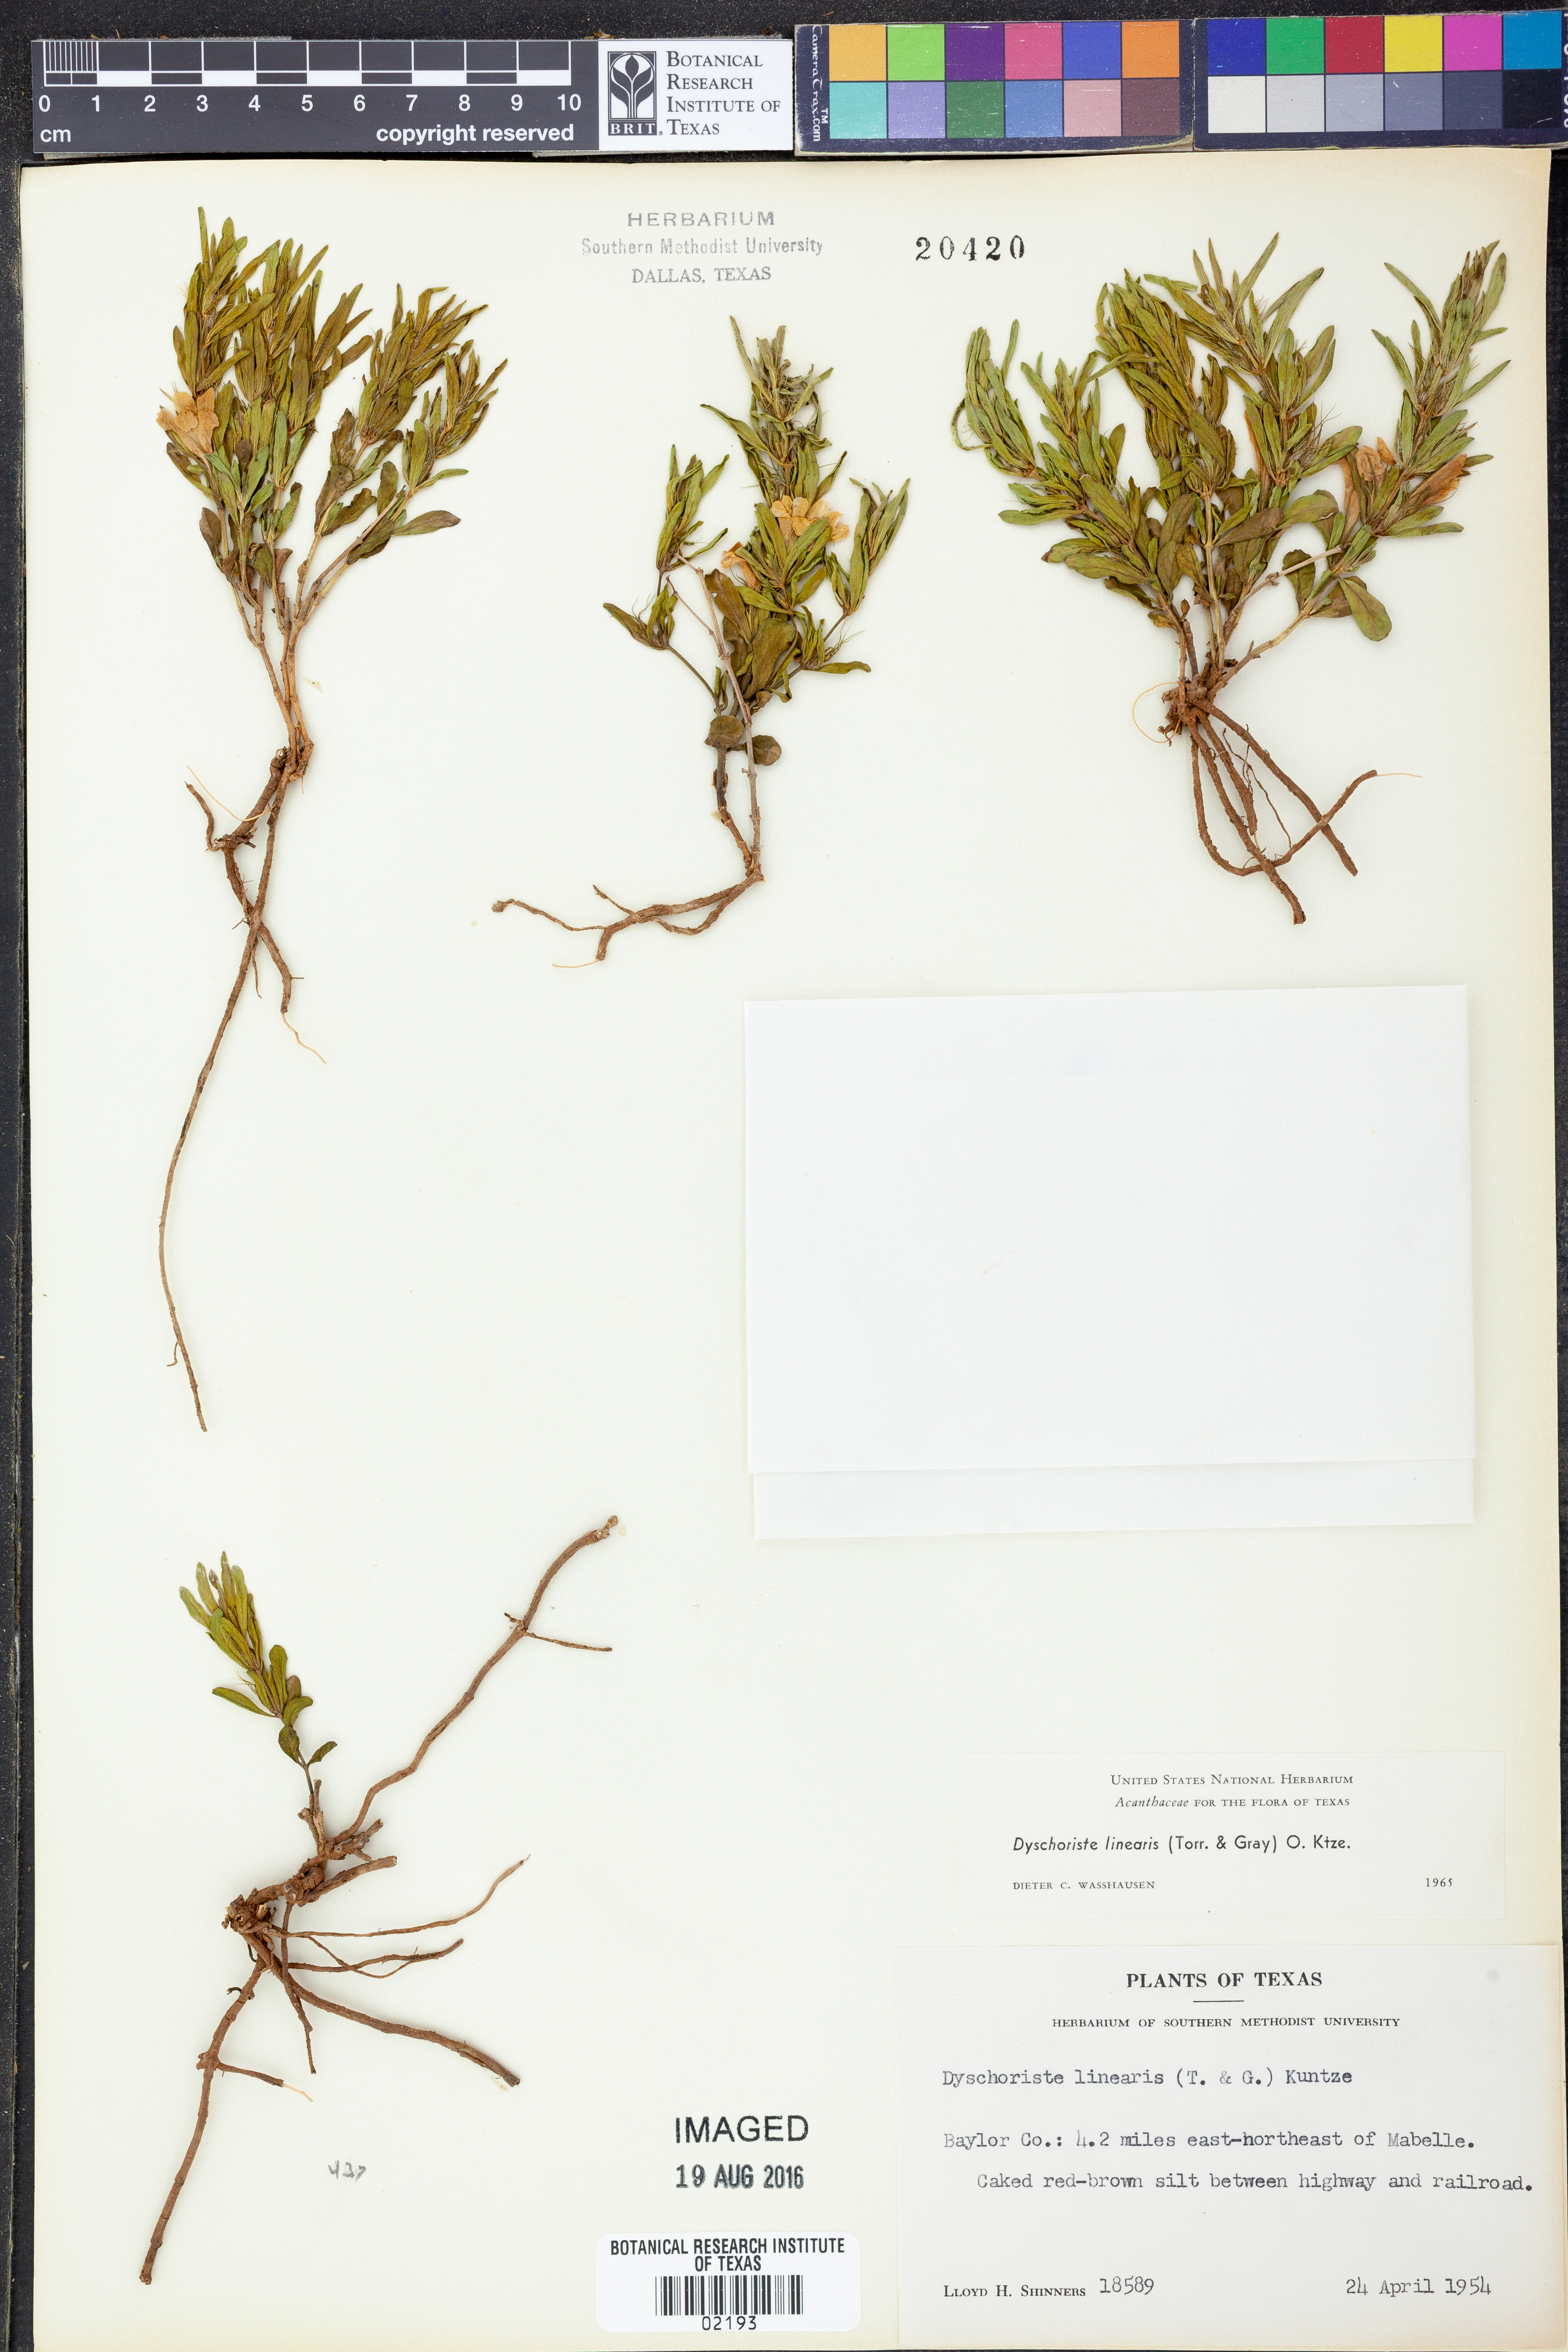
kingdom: Plantae
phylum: Tracheophyta
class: Magnoliopsida
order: Lamiales
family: Acanthaceae
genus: Dyschoriste
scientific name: Dyschoriste linearis
